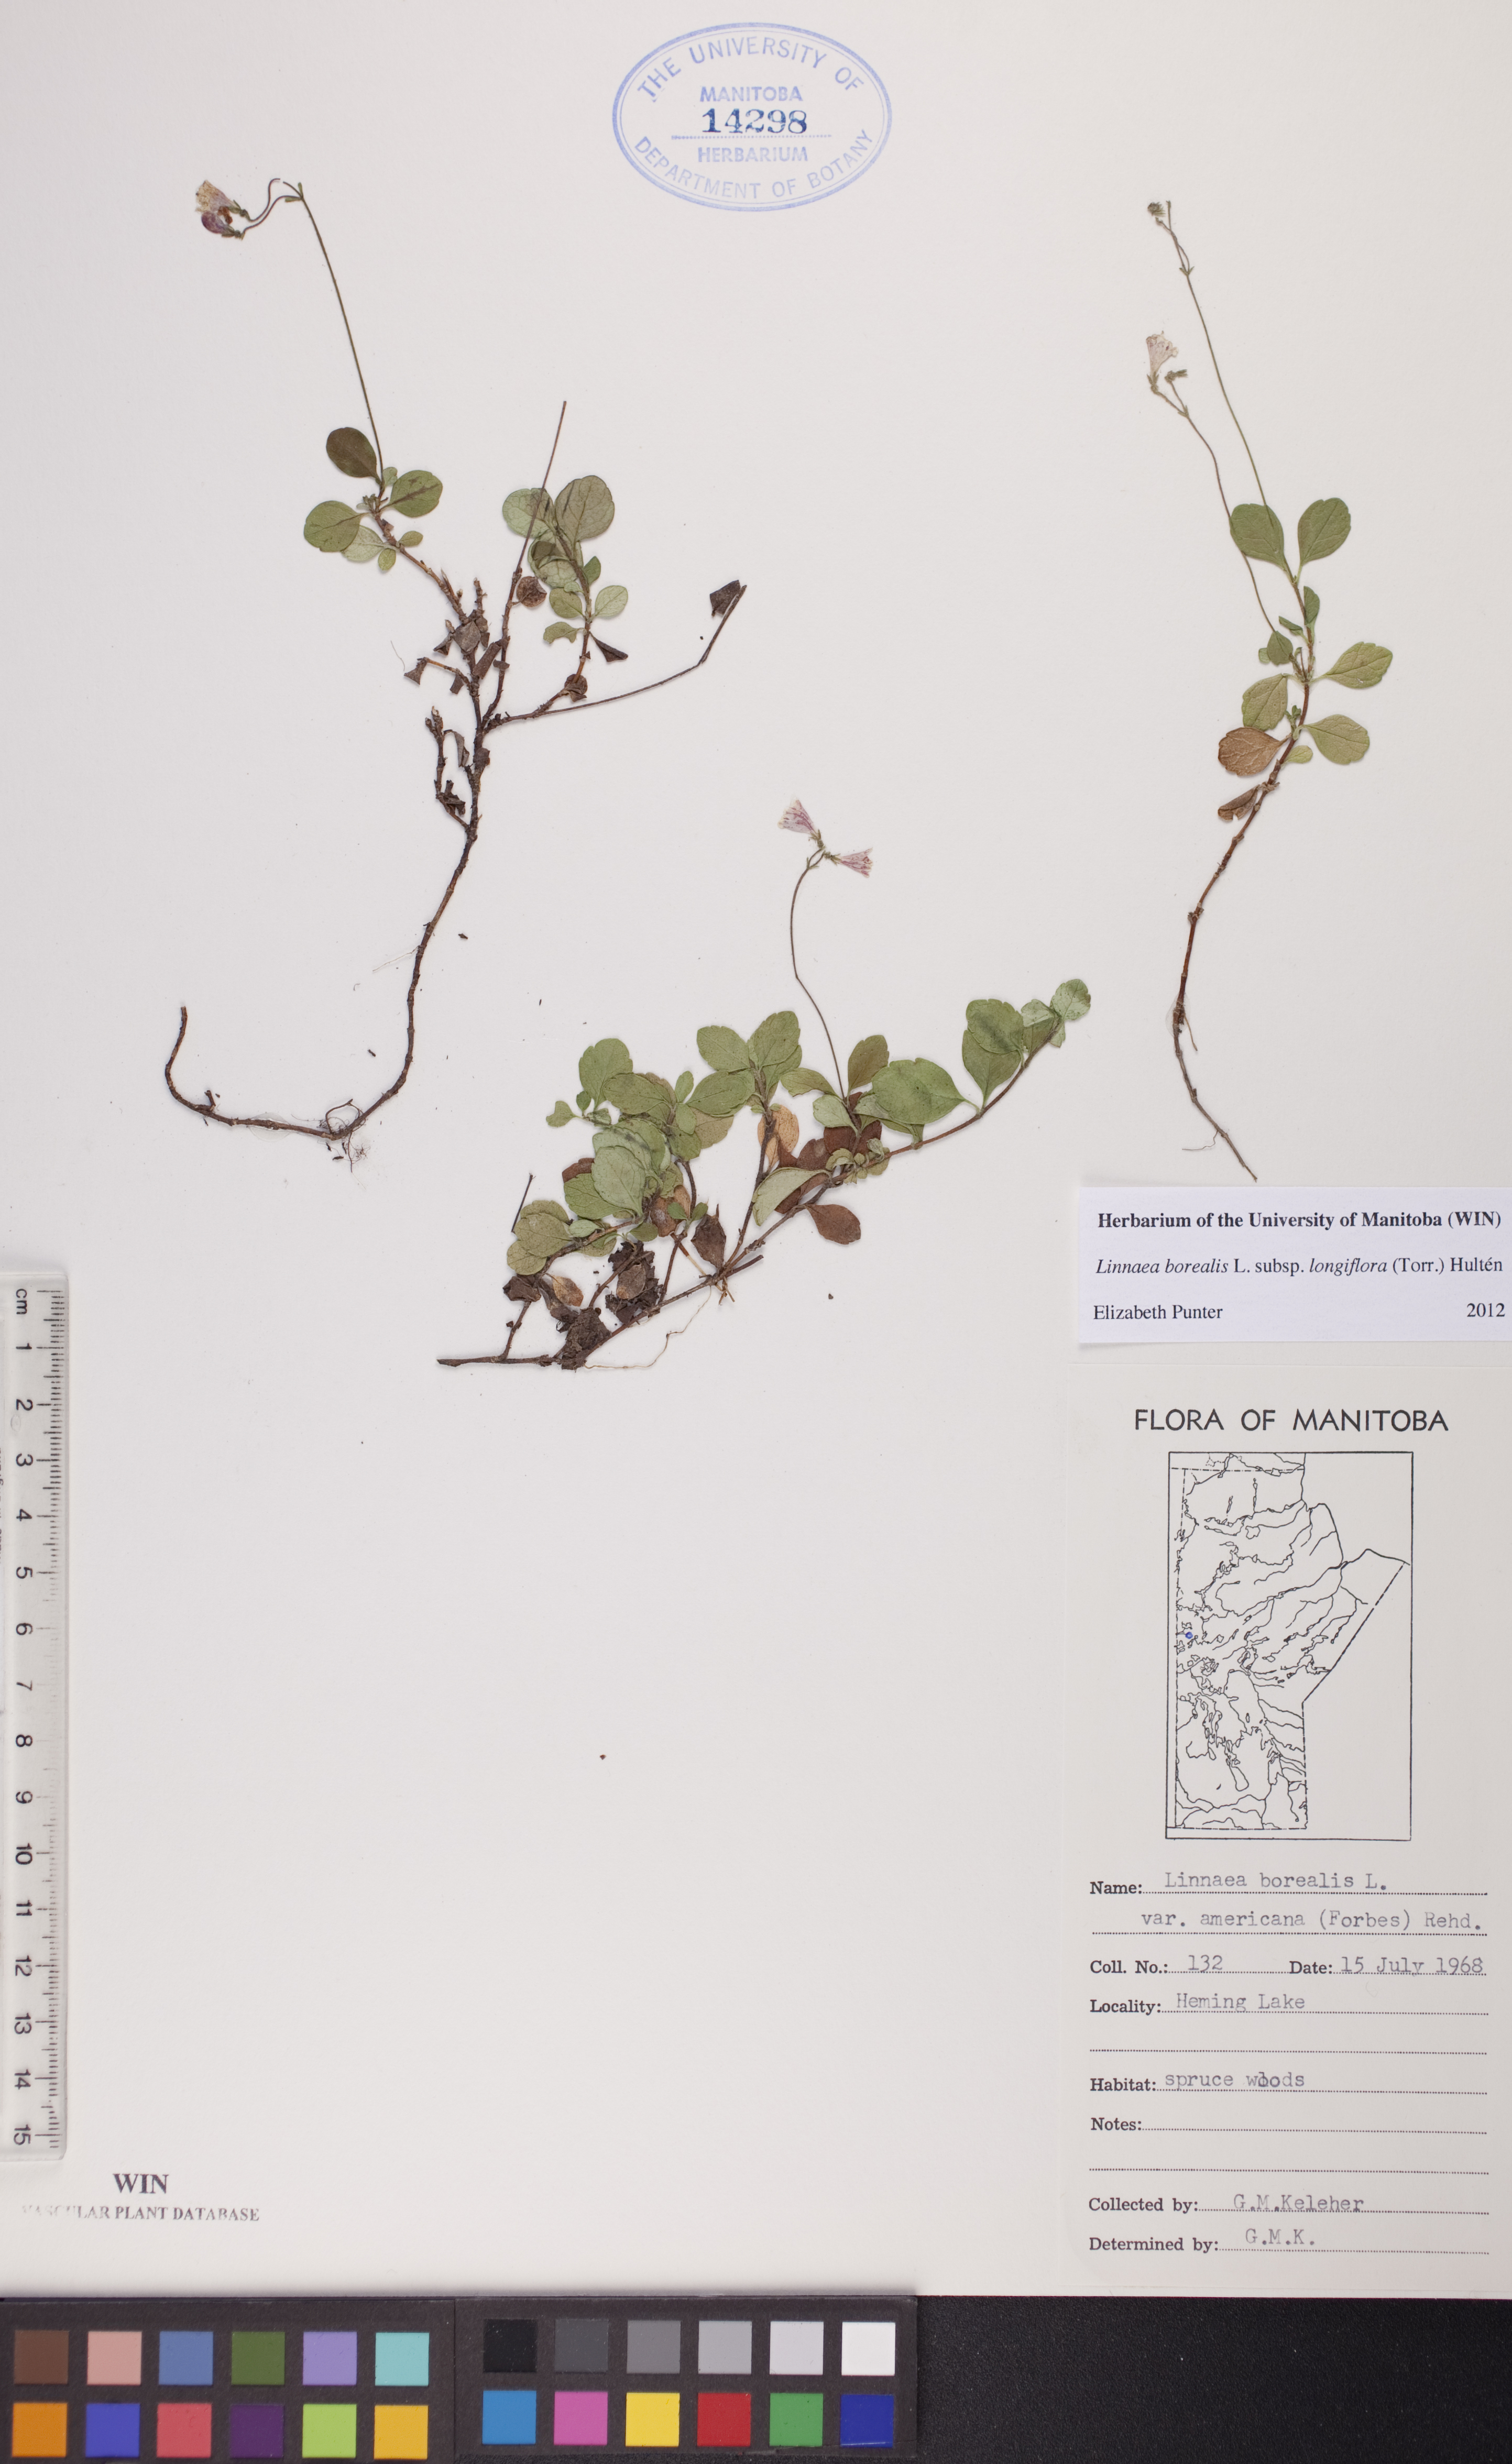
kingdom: Plantae
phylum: Tracheophyta
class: Magnoliopsida
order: Dipsacales
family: Caprifoliaceae
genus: Linnaea
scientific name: Linnaea borealis
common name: Twinflower
